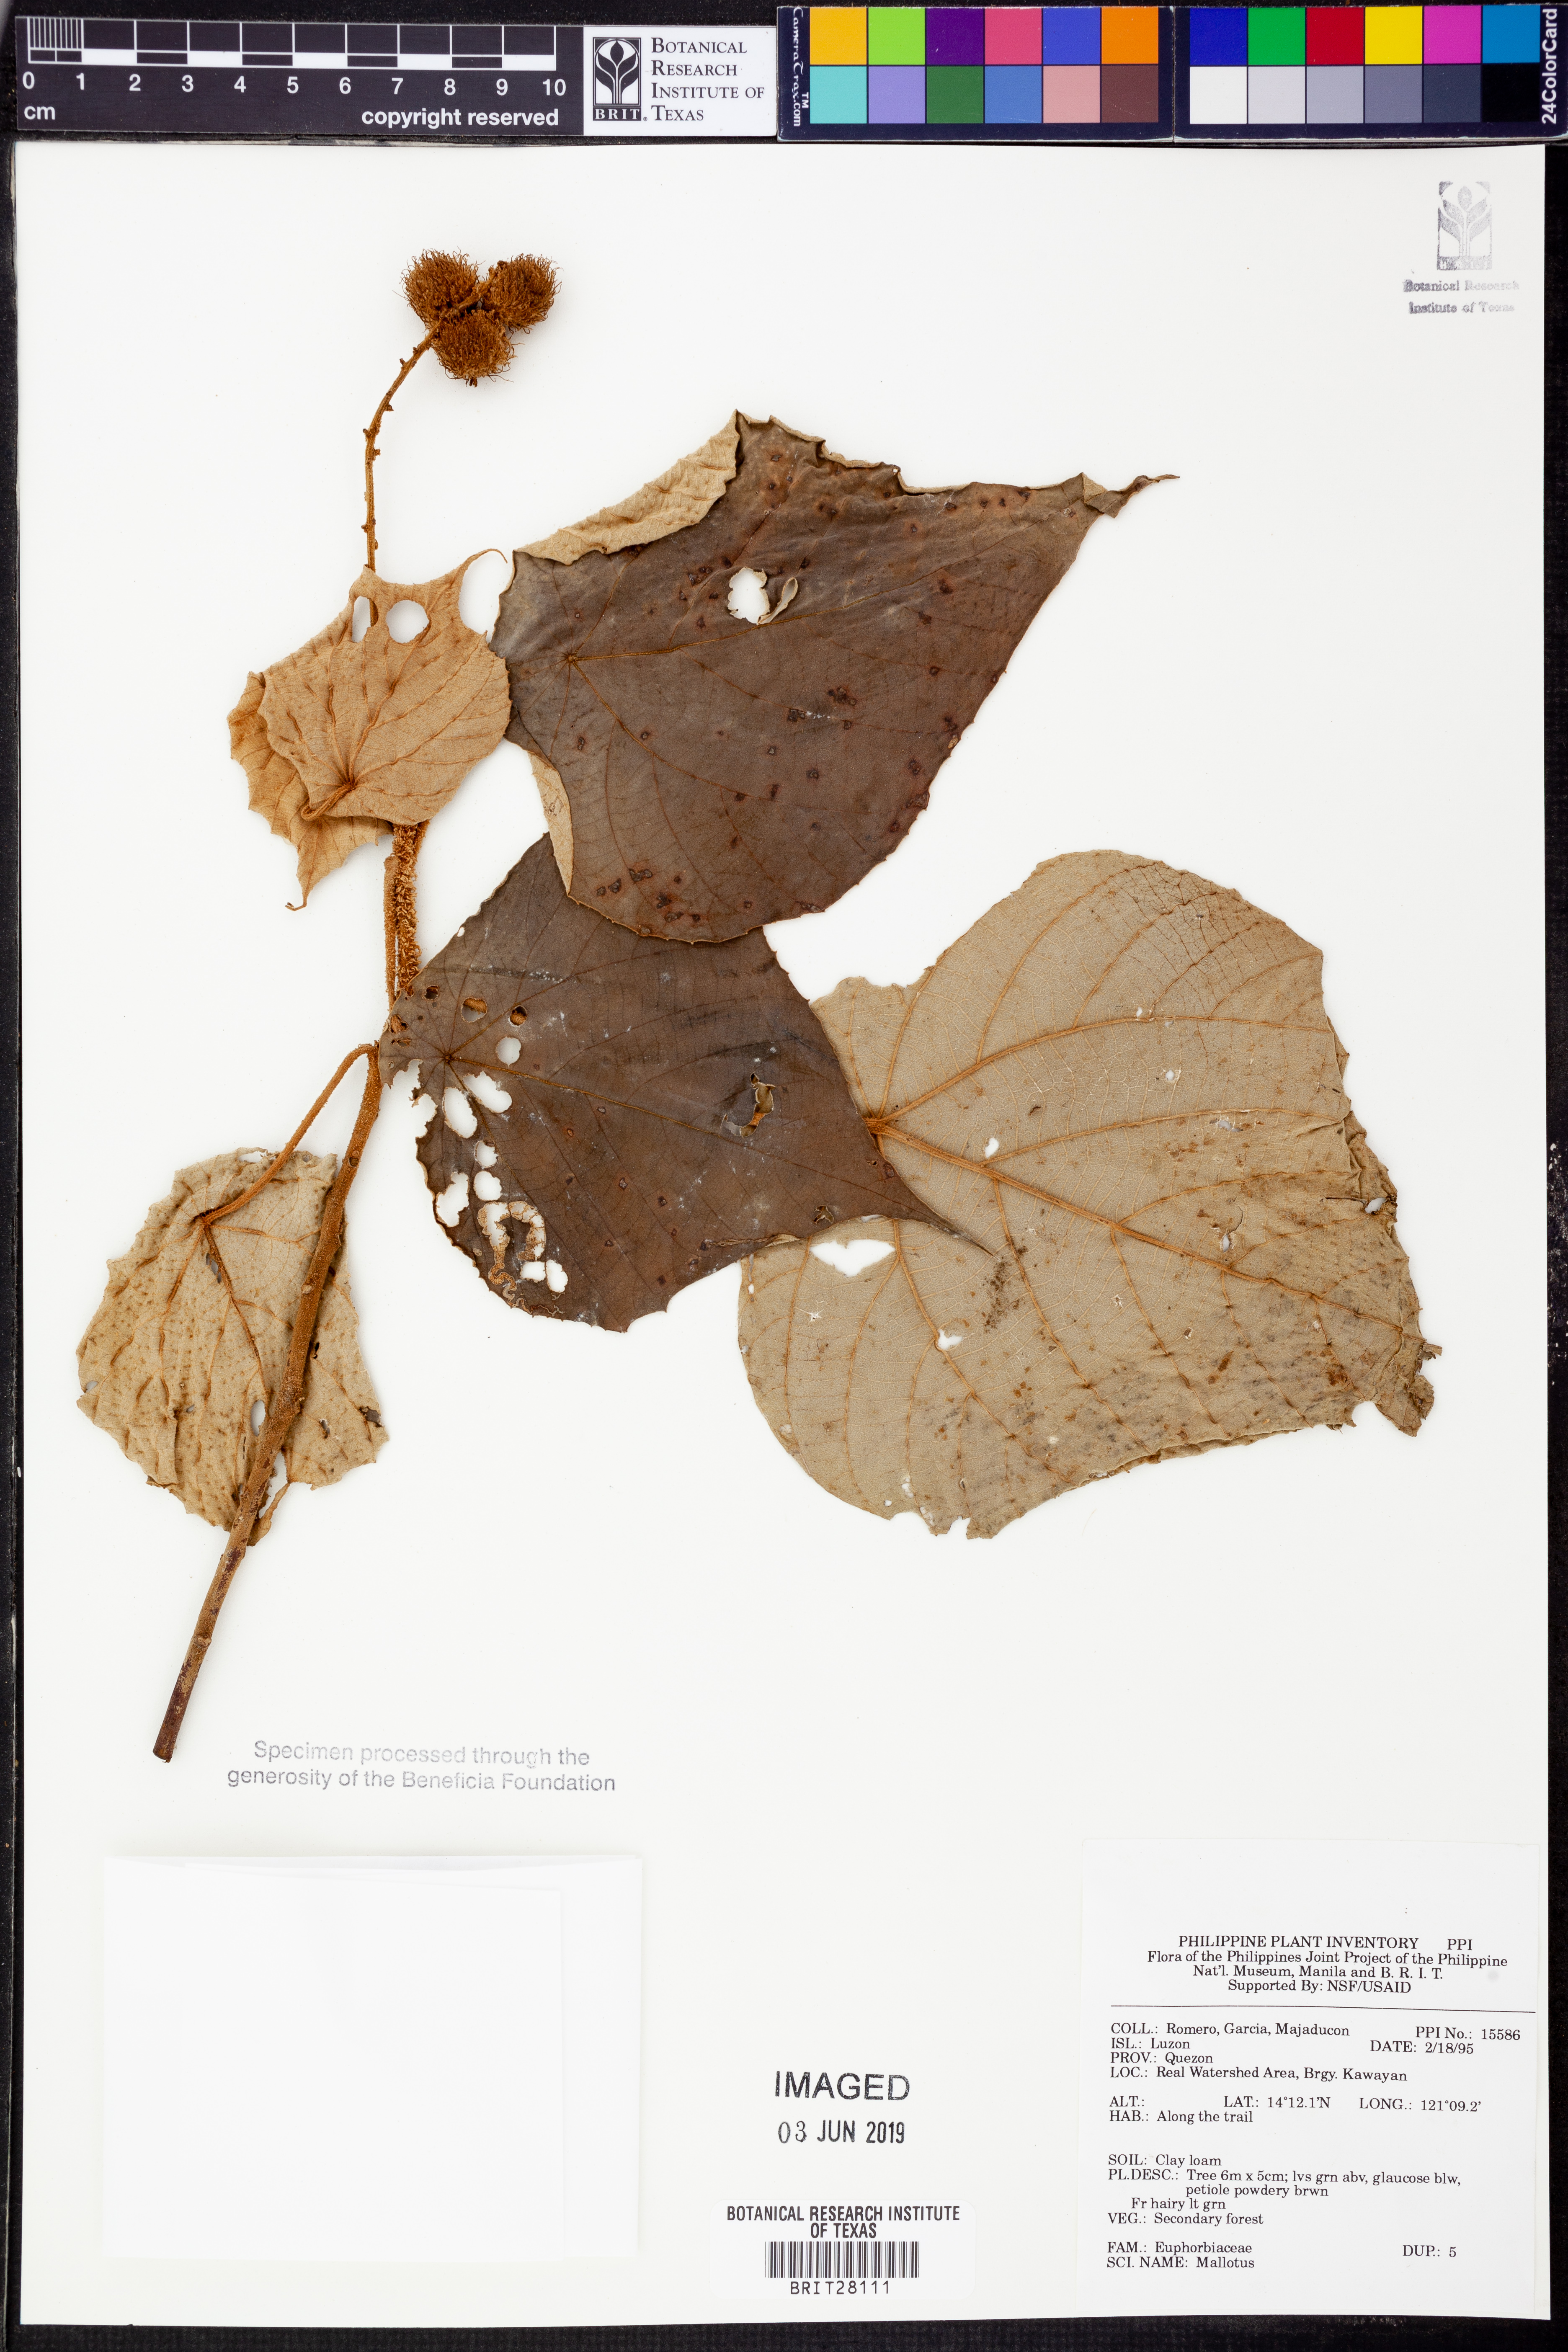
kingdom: Plantae
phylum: Tracheophyta
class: Magnoliopsida
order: Malpighiales
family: Euphorbiaceae
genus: Mallotus
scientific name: Mallotus
